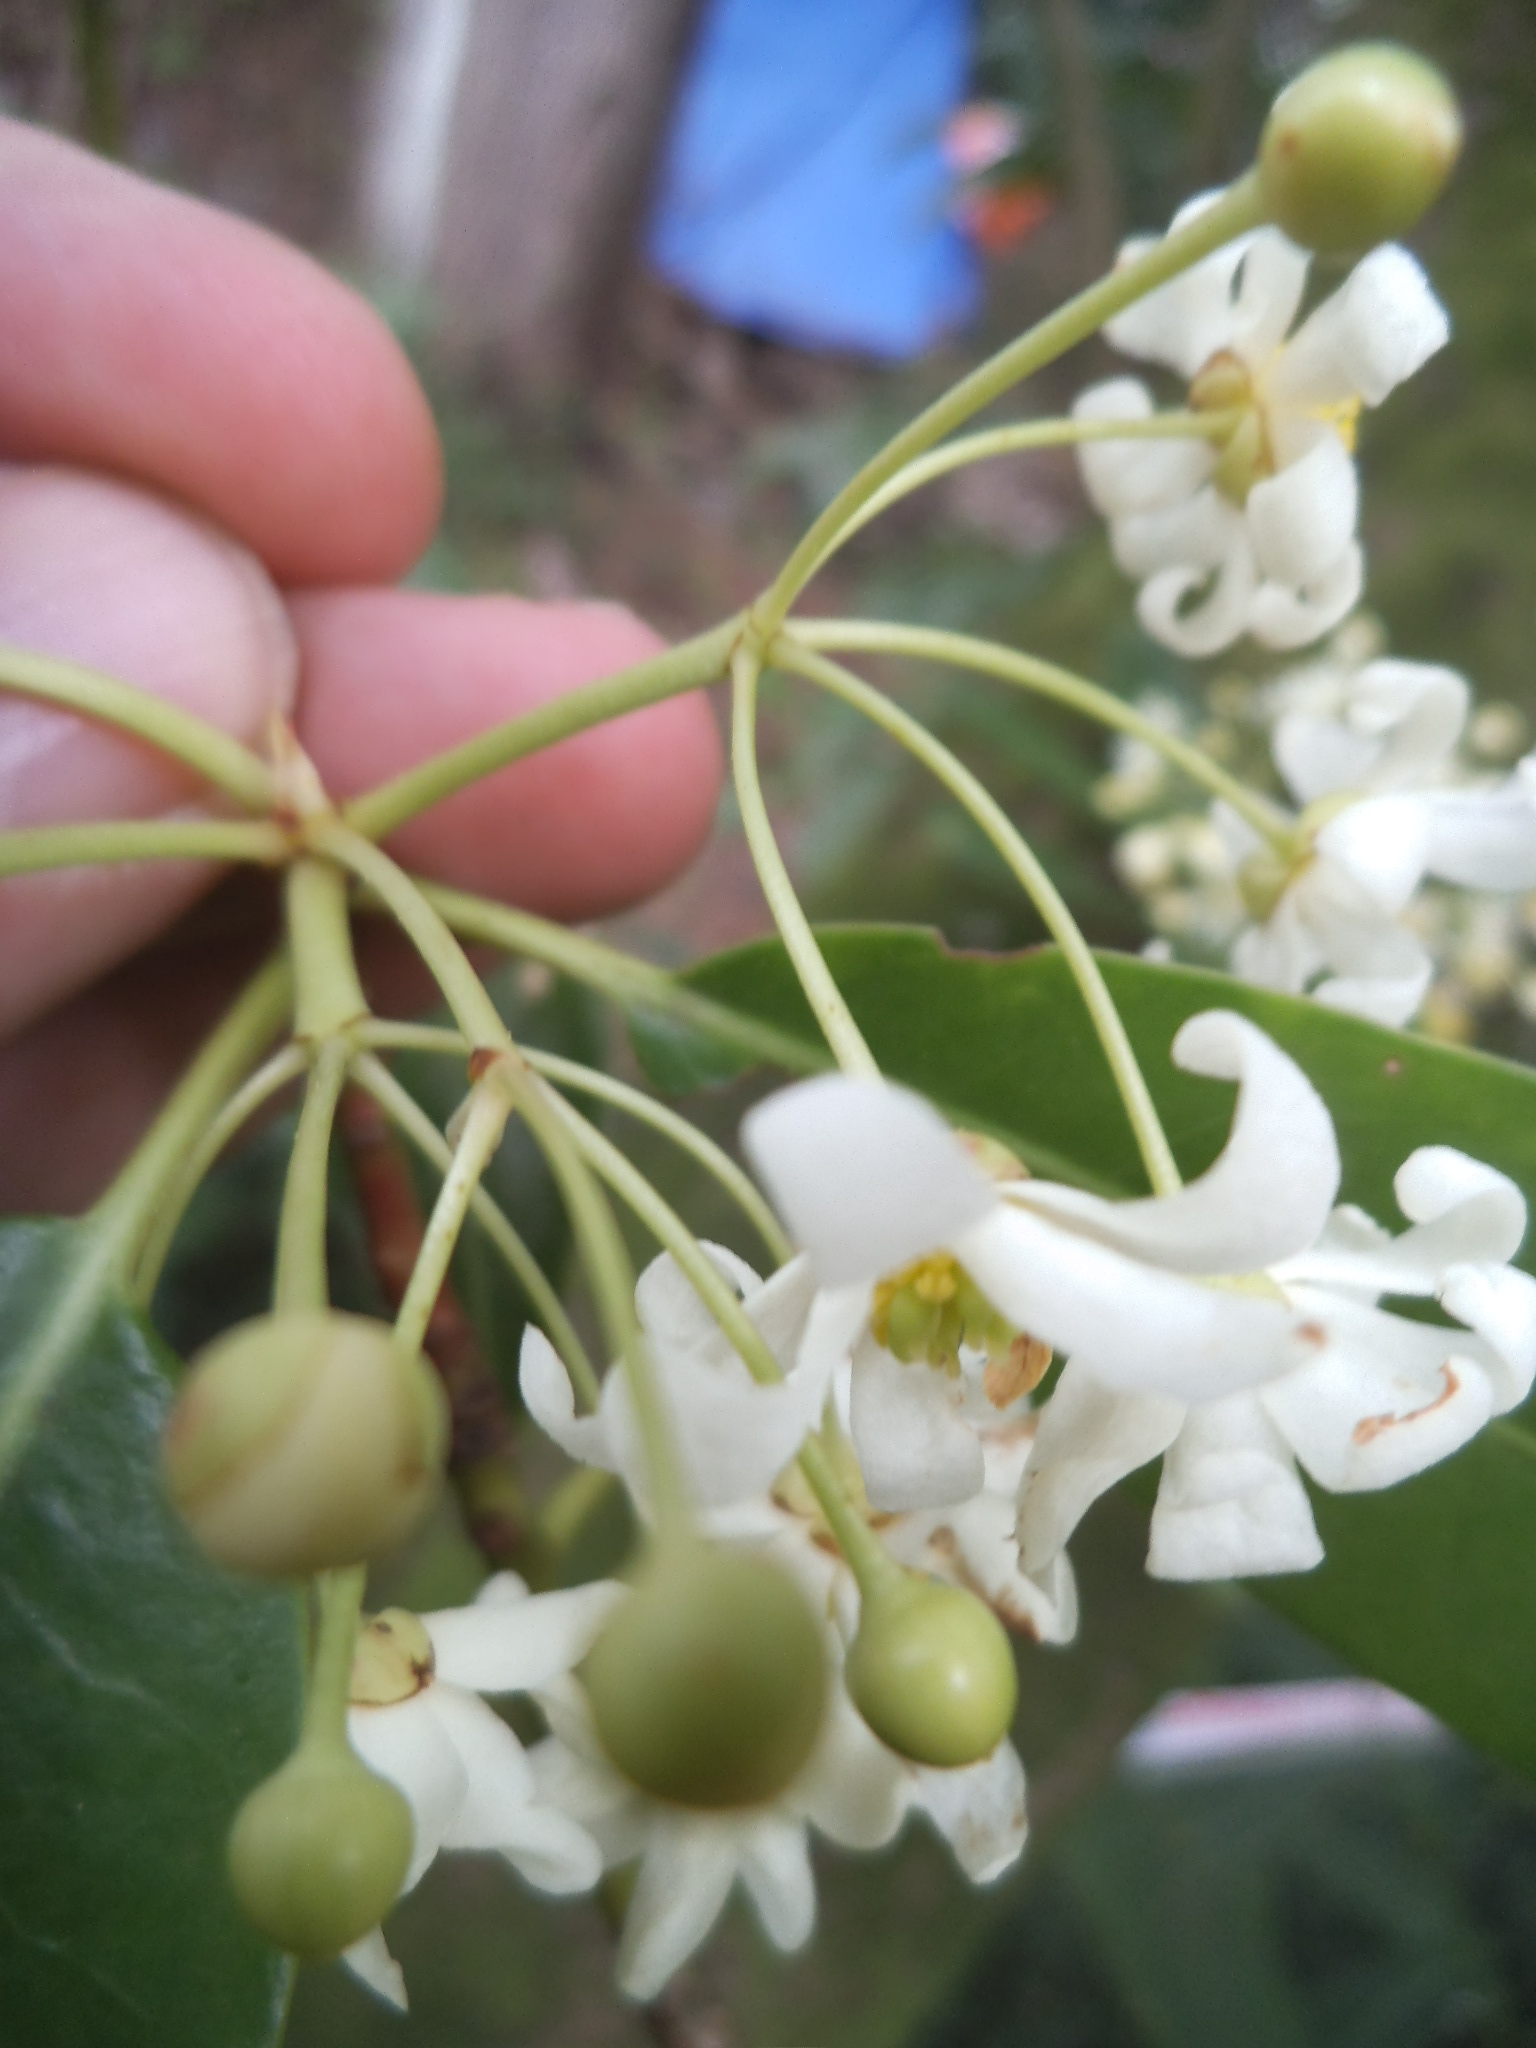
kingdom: Plantae
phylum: Tracheophyta
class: Magnoliopsida
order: Canellales
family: Winteraceae
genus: Drimys
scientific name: Drimys winteri
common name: Winter's-bark
